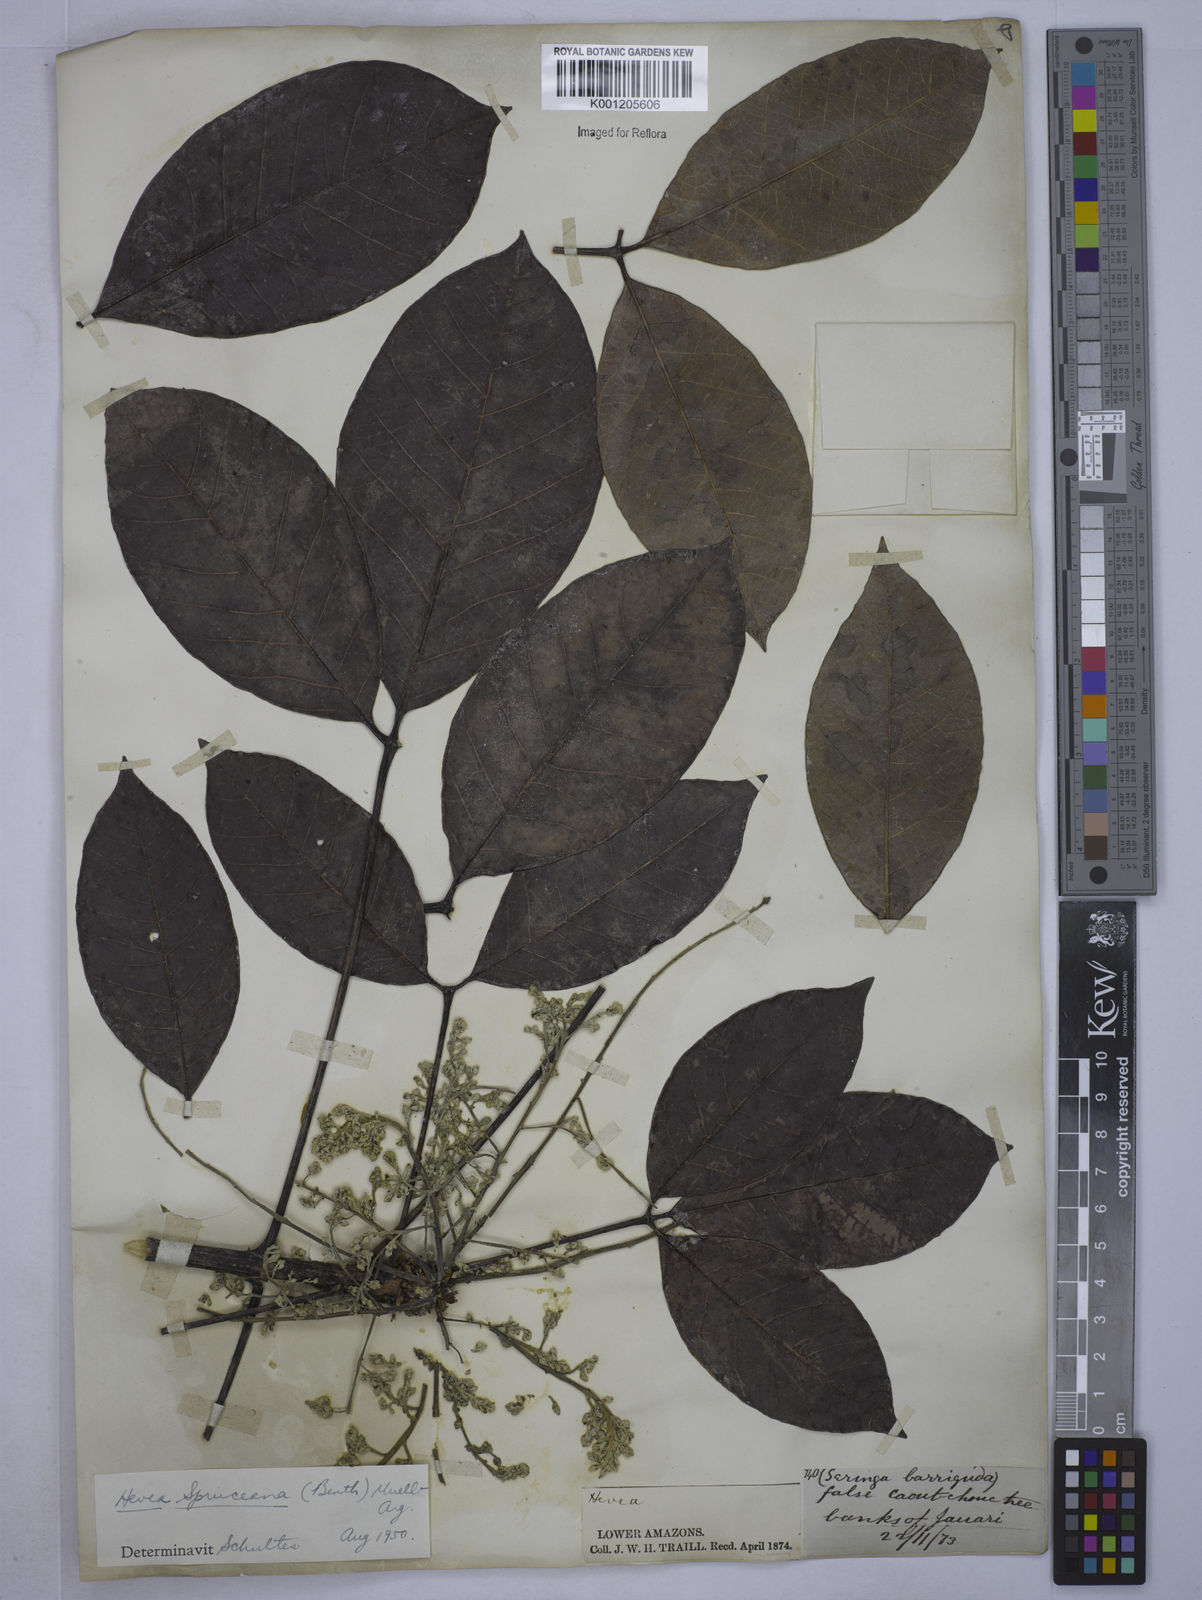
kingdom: Plantae
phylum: Tracheophyta
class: Magnoliopsida
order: Malpighiales
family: Euphorbiaceae
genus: Hevea
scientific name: Hevea
